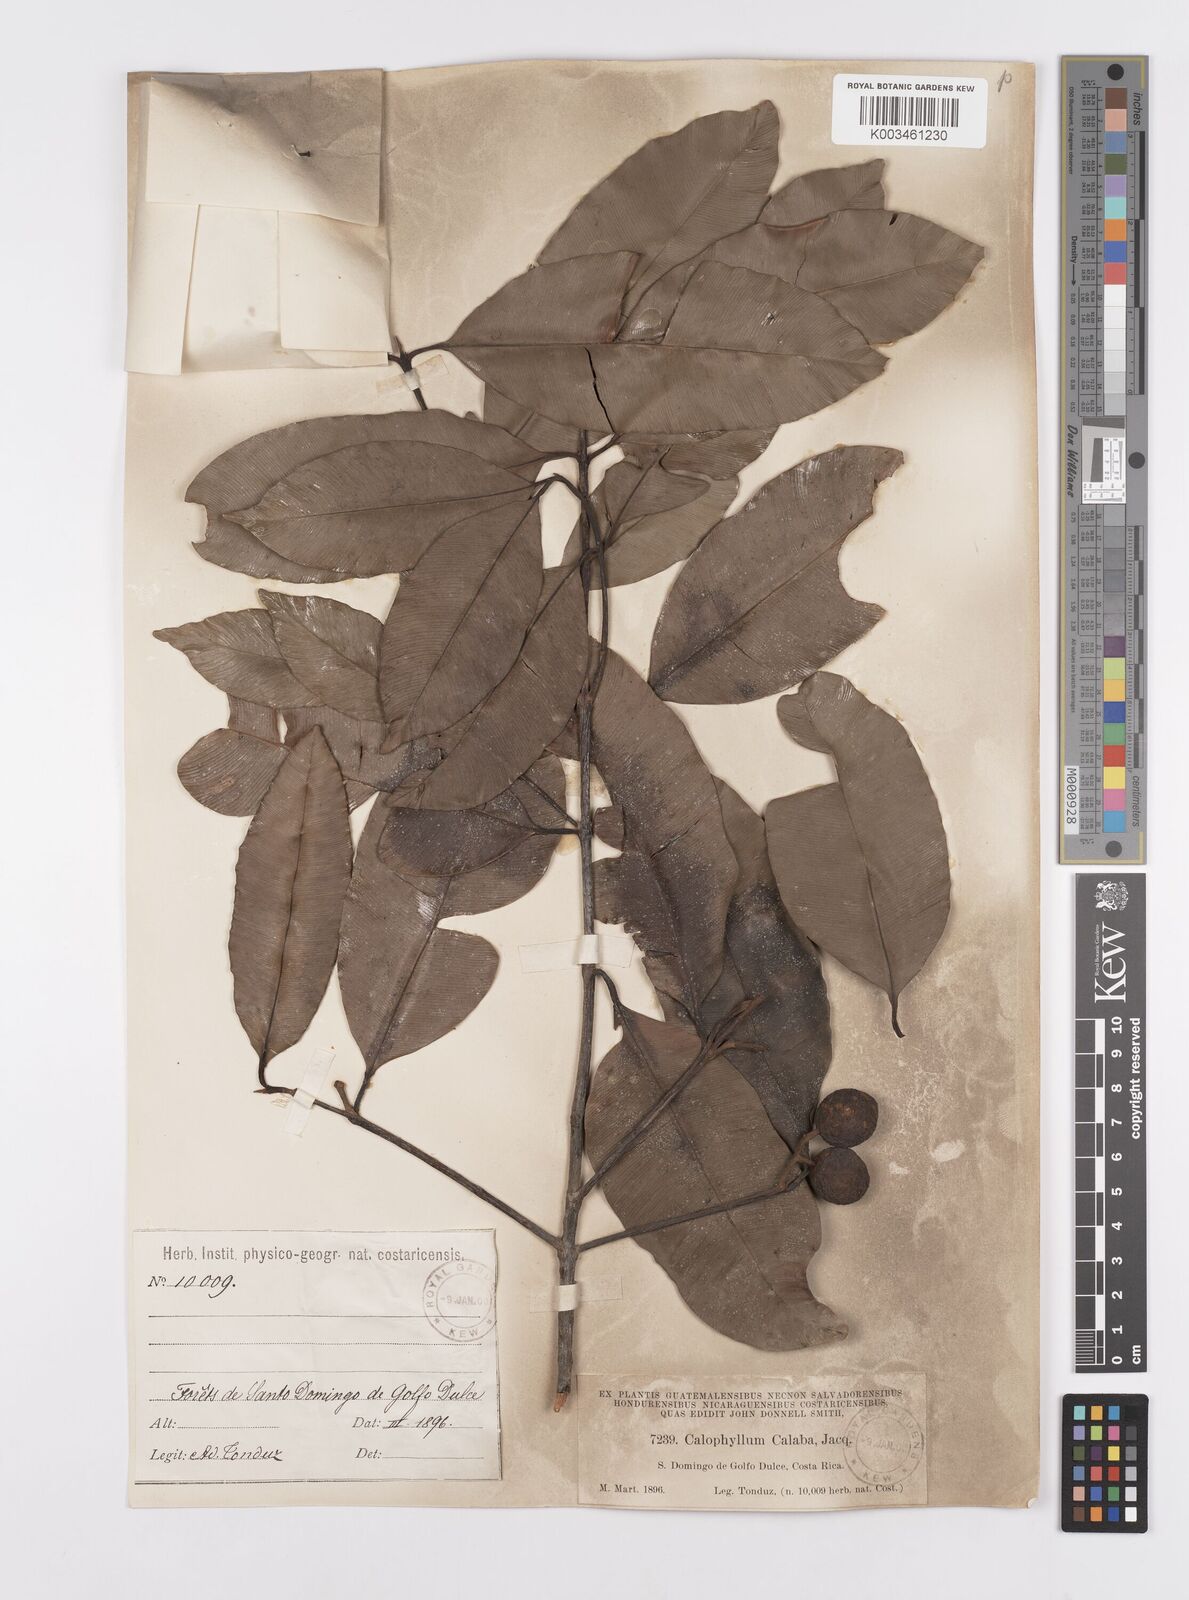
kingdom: Plantae
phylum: Tracheophyta
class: Magnoliopsida
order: Malpighiales
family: Calophyllaceae
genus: Calophyllum
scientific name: Calophyllum
